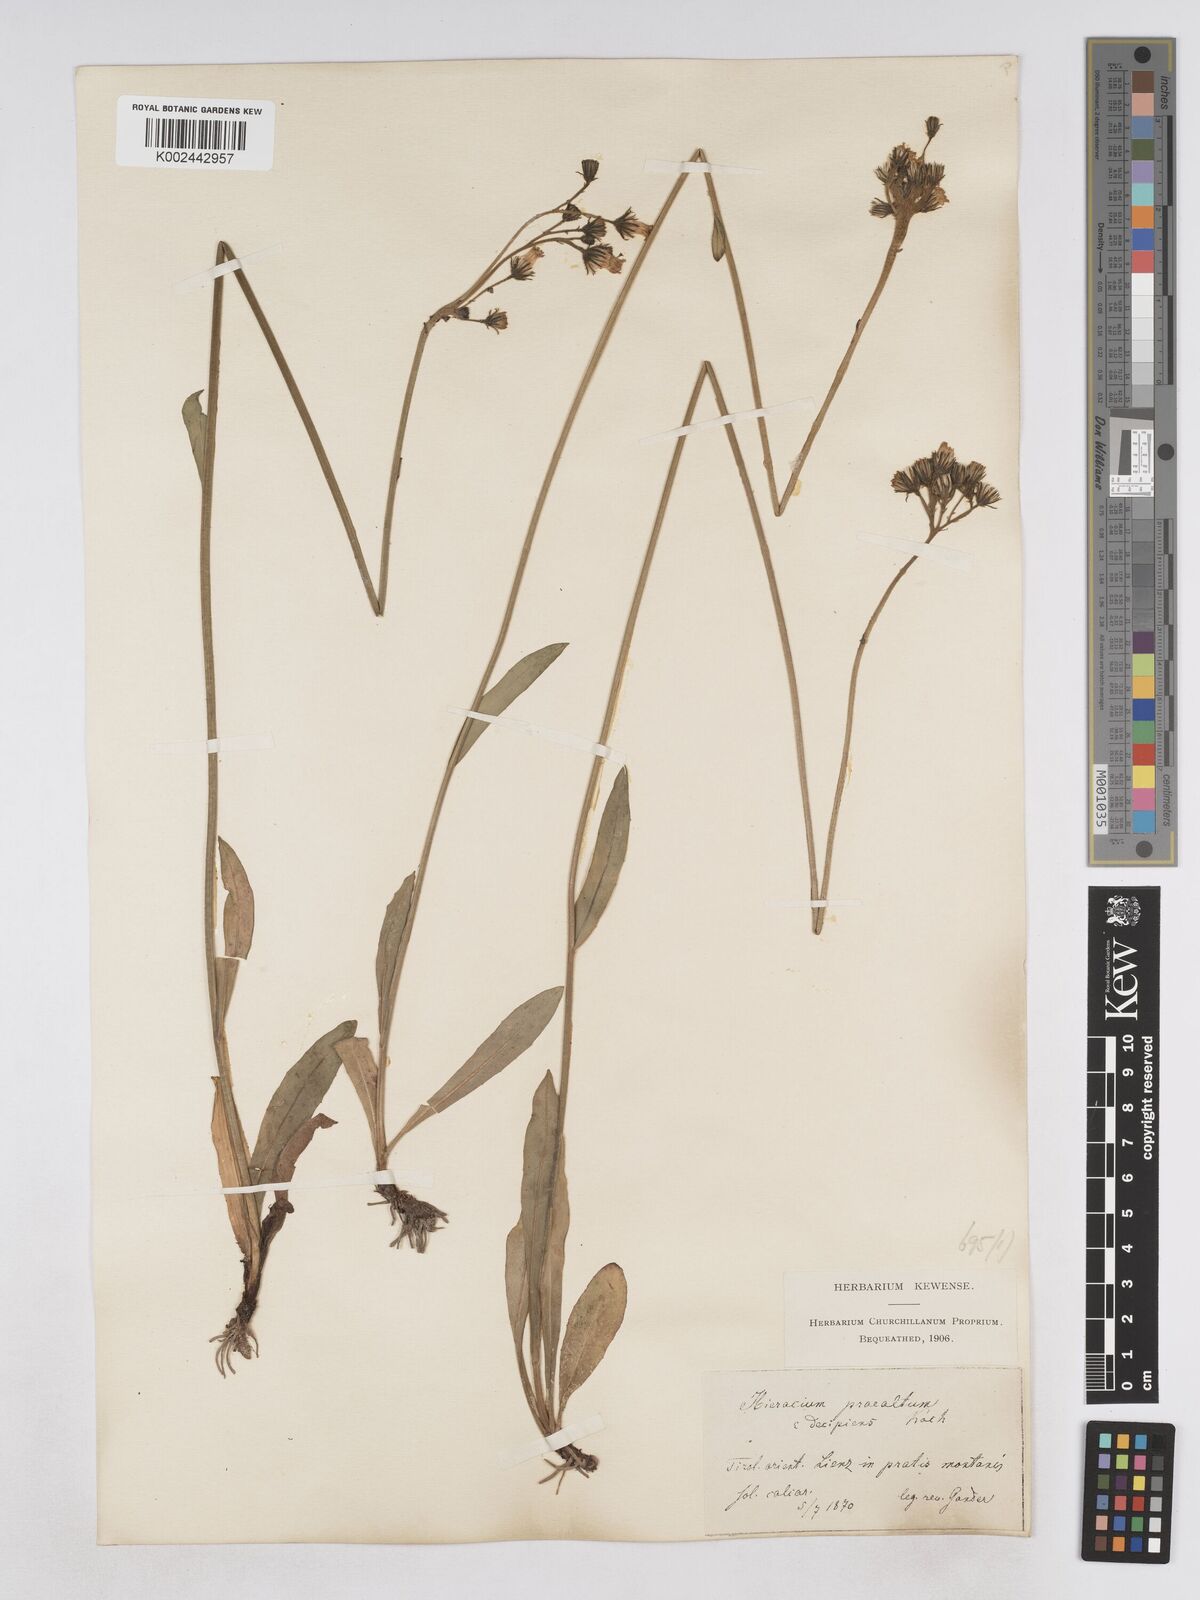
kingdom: Plantae
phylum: Tracheophyta
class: Magnoliopsida
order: Asterales
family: Asteraceae
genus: Pilosella
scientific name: Pilosella piloselloides
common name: Glaucous king-devil
